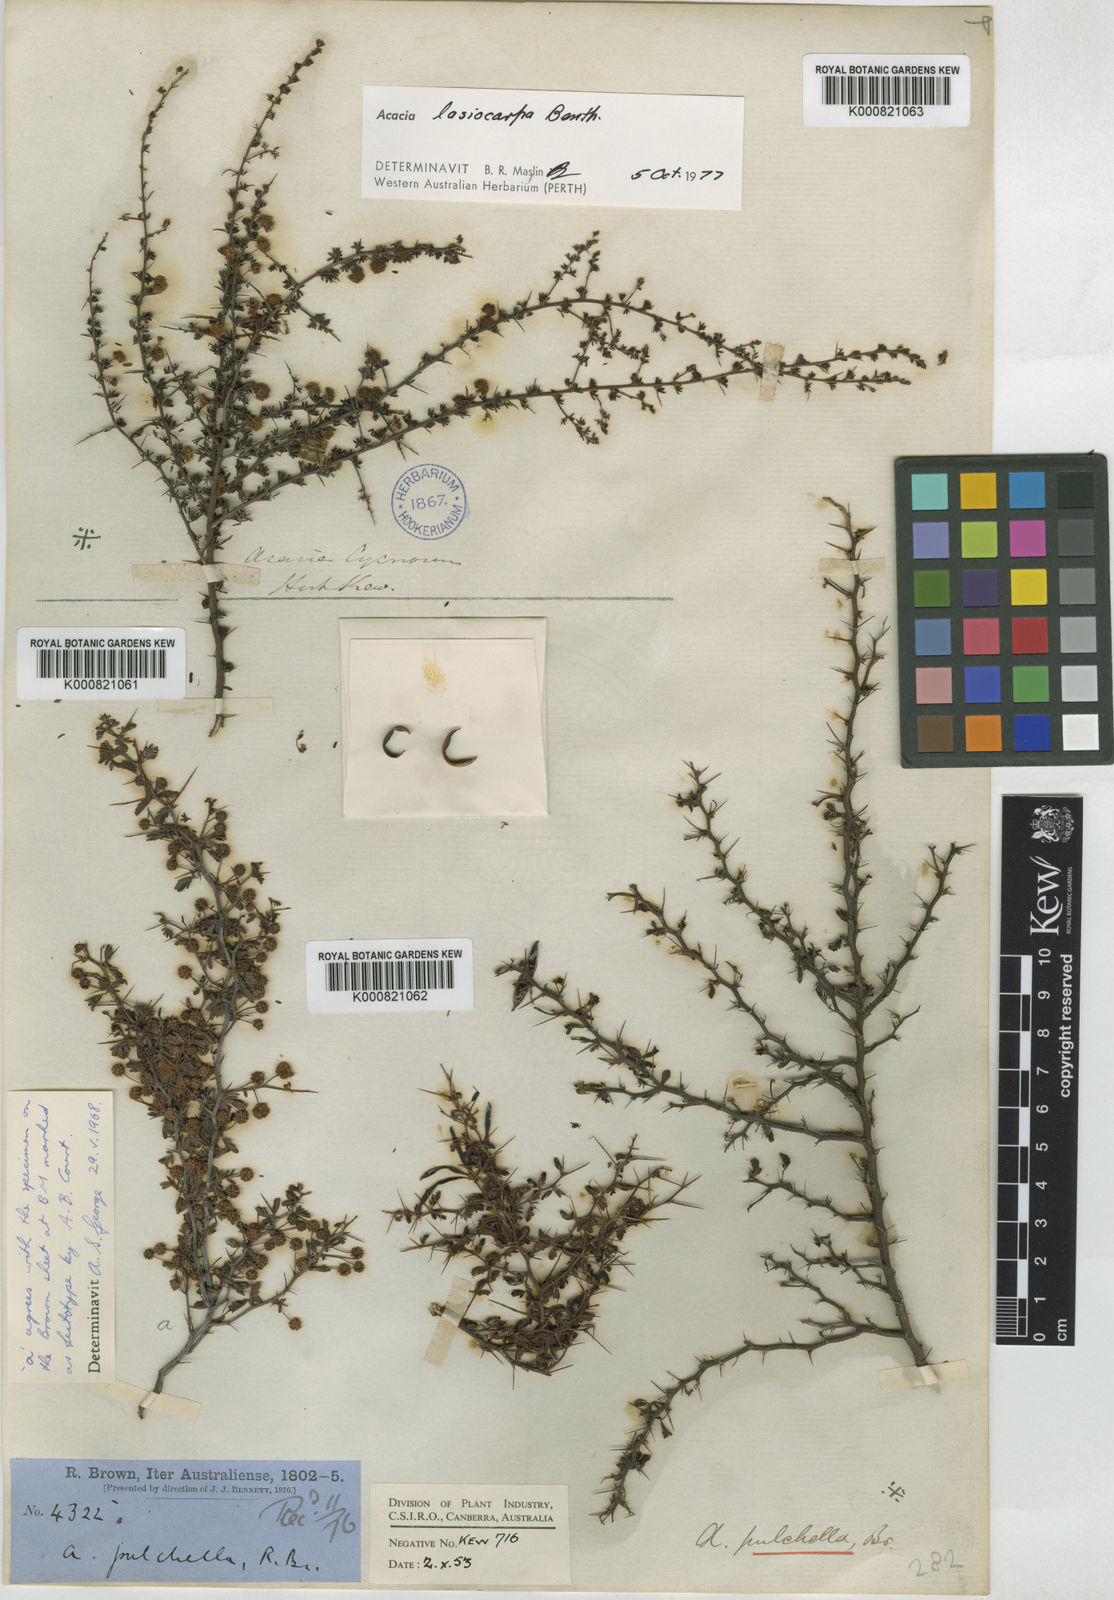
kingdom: Plantae
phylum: Tracheophyta
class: Magnoliopsida
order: Fabales
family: Fabaceae
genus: Acacia
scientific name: Acacia pulchella
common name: Prickly moses
